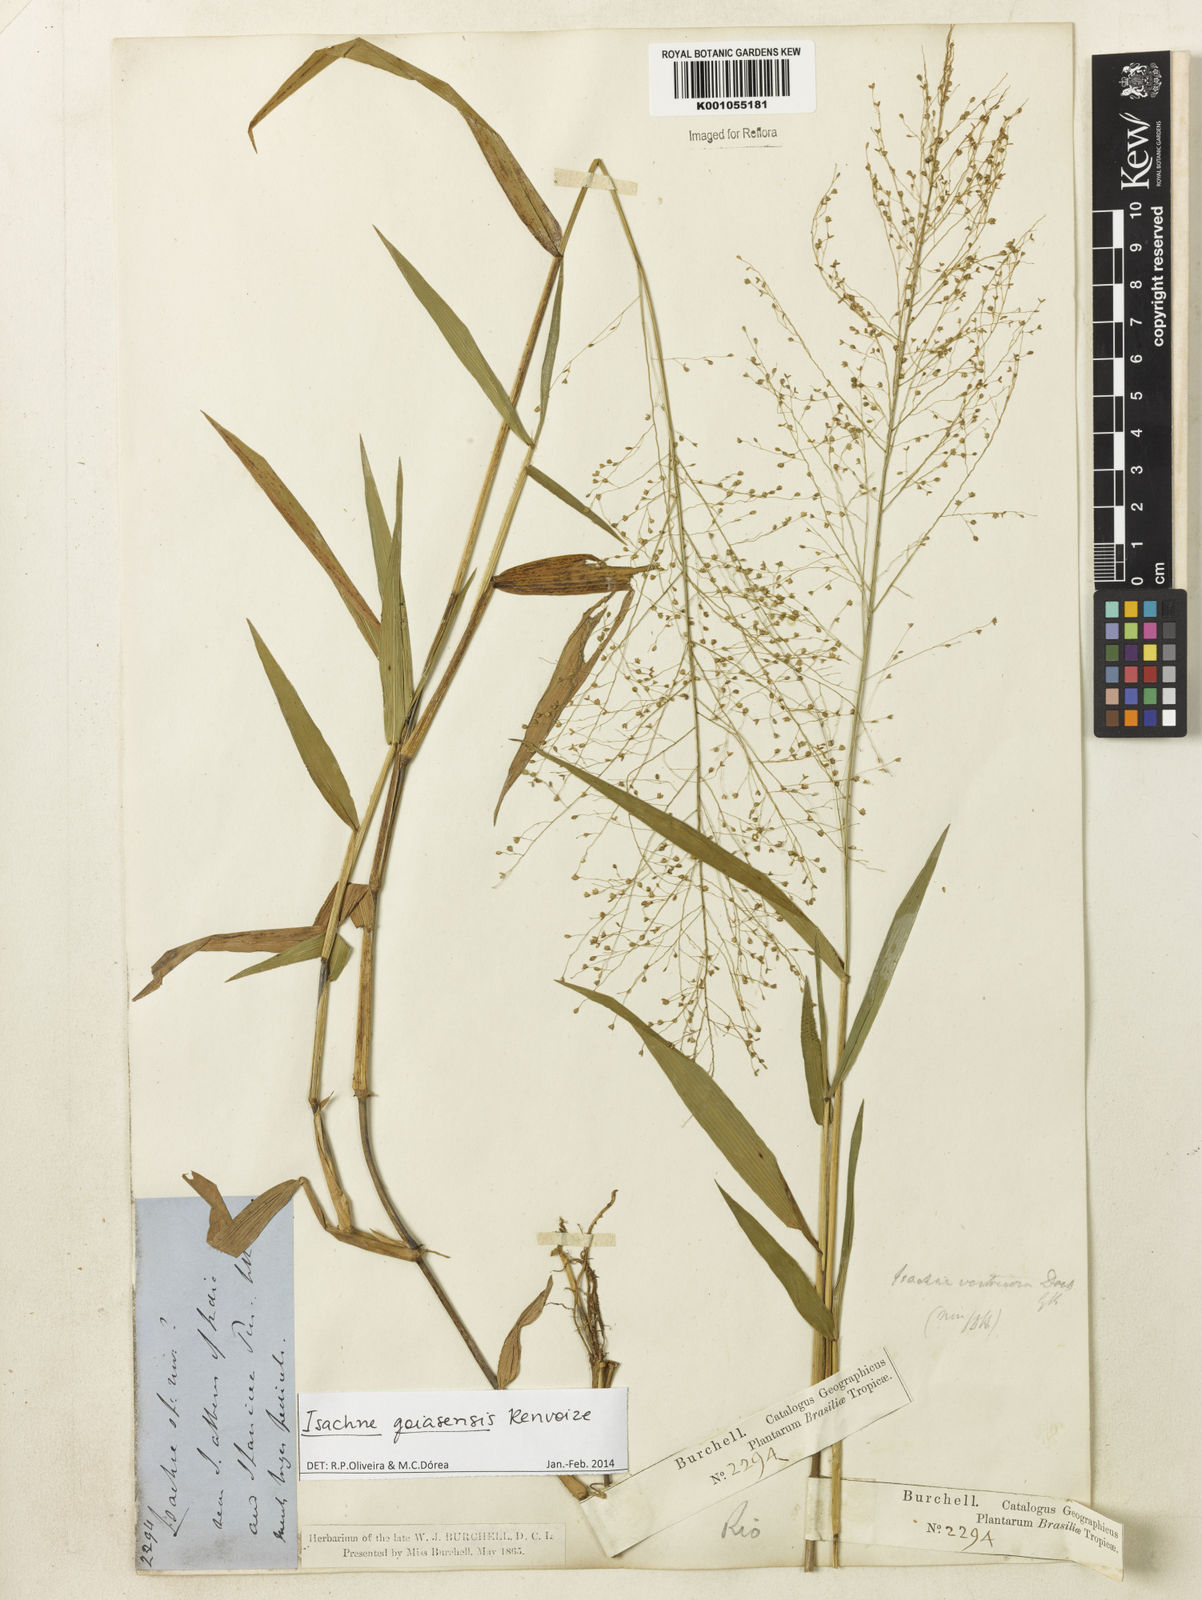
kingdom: Plantae
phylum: Tracheophyta
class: Liliopsida
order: Poales
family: Poaceae
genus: Isachne
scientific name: Isachne goiasensis
